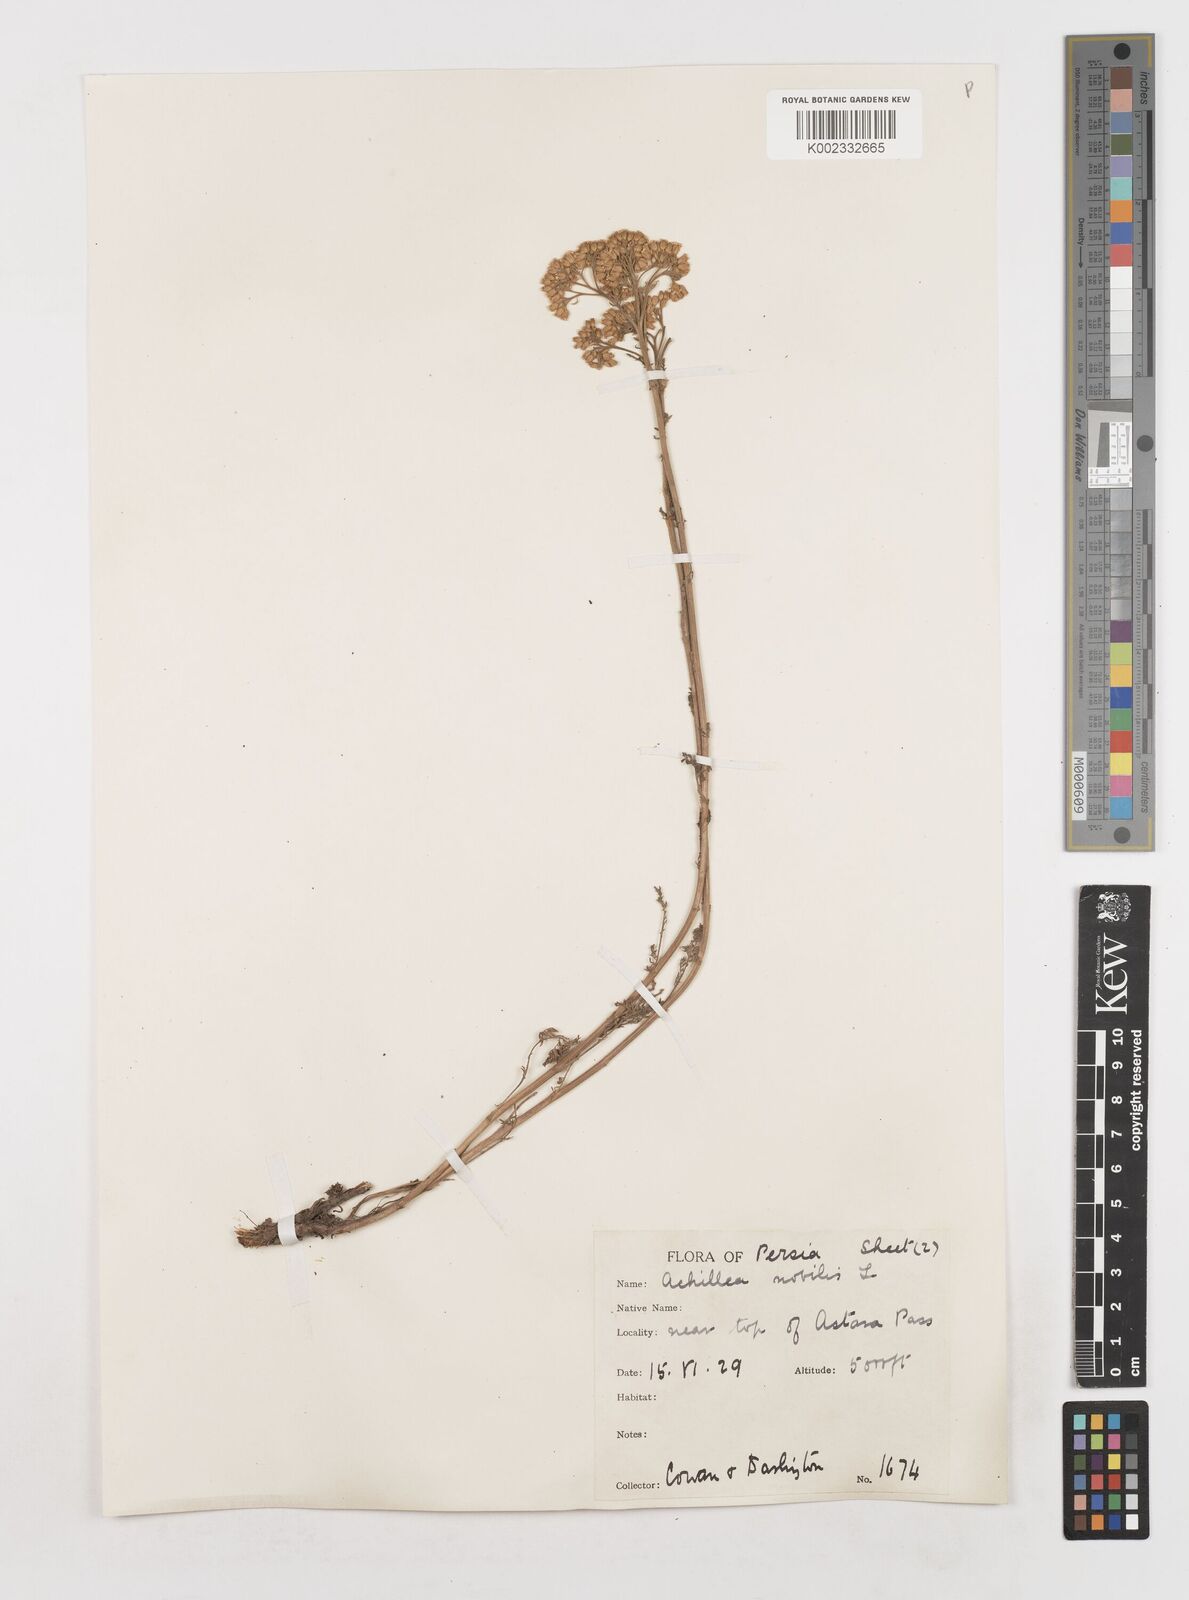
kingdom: Plantae
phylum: Tracheophyta
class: Magnoliopsida
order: Asterales
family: Asteraceae
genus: Achillea
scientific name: Achillea nobilis
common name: Noble yarrow
